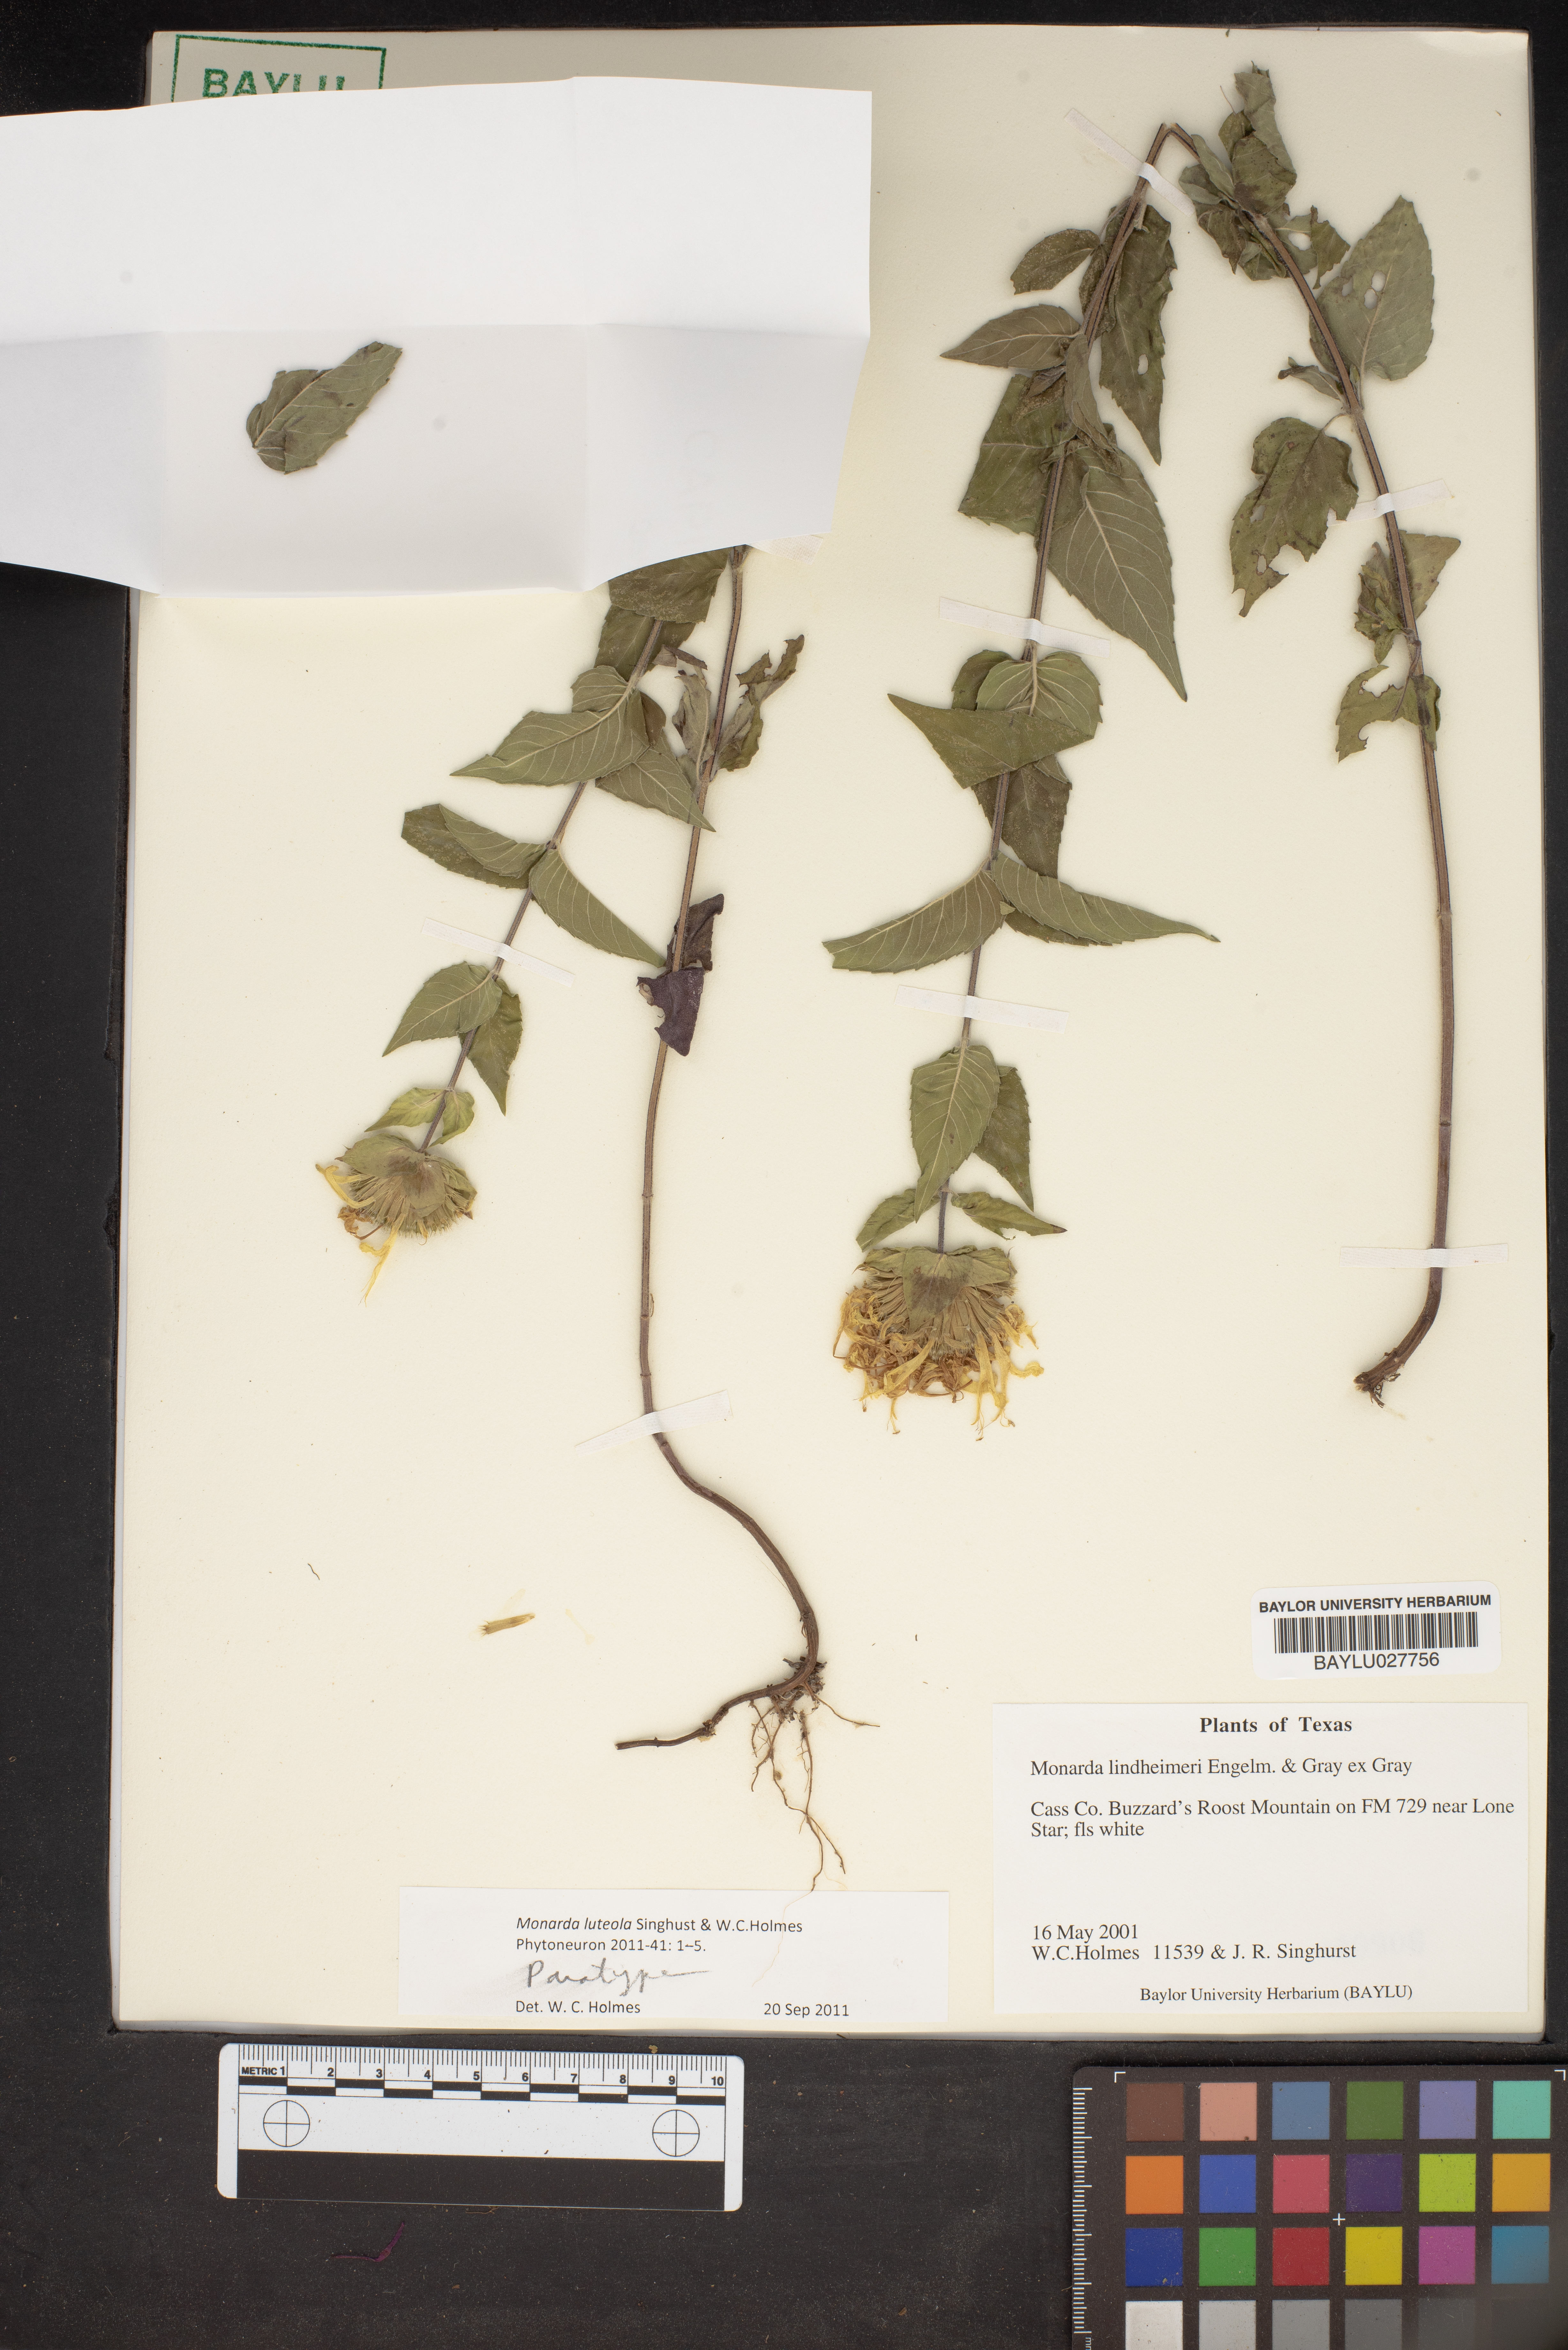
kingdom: Plantae
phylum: Tracheophyta
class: Magnoliopsida
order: Lamiales
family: Lamiaceae
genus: Monarda
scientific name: Monarda lindheimeri
